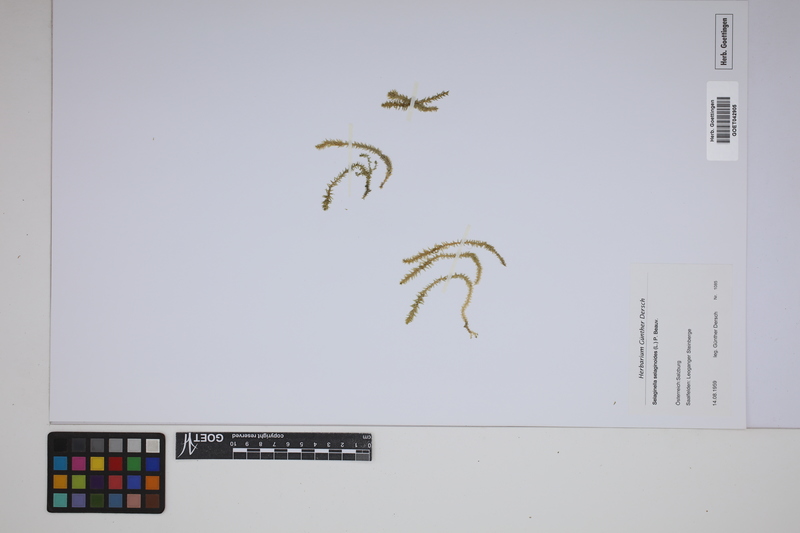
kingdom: Plantae
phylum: Tracheophyta
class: Lycopodiopsida
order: Selaginellales
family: Selaginellaceae
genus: Selaginella
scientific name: Selaginella selaginoides
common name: Prickly mountain-moss
